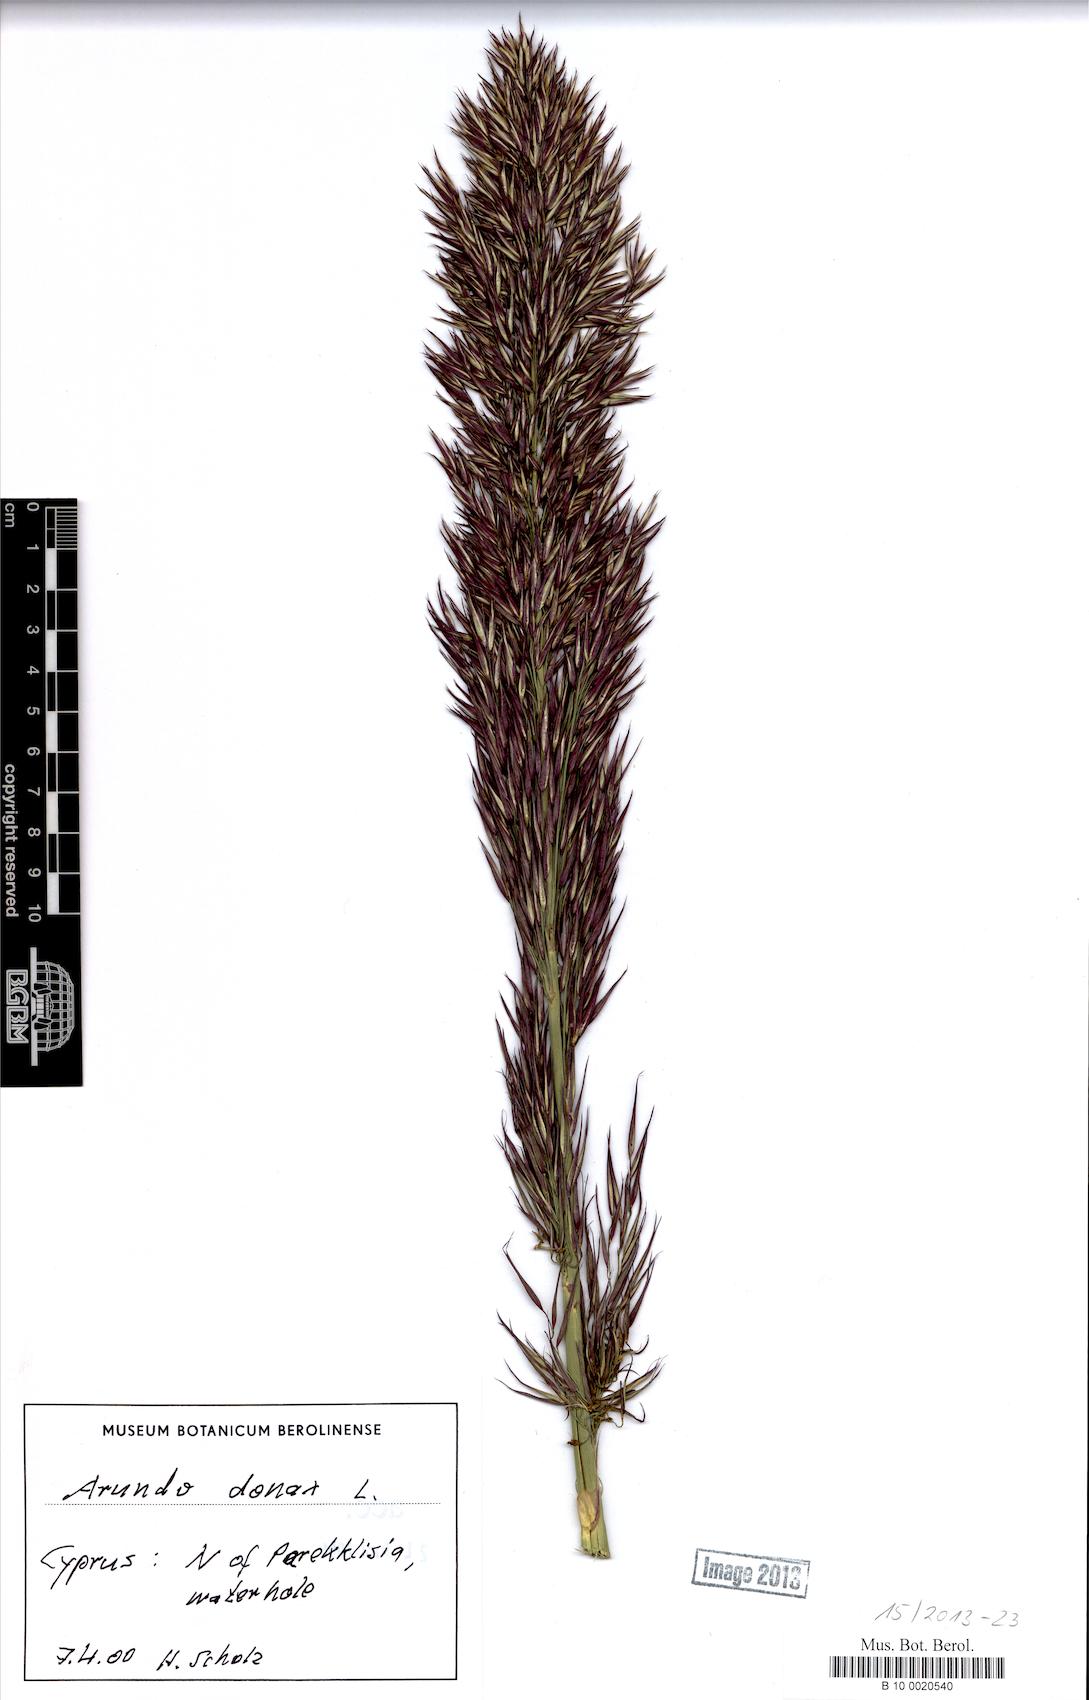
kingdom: Plantae
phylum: Tracheophyta
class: Liliopsida
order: Poales
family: Poaceae
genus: Arundo
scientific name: Arundo donax
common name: Giant reed
